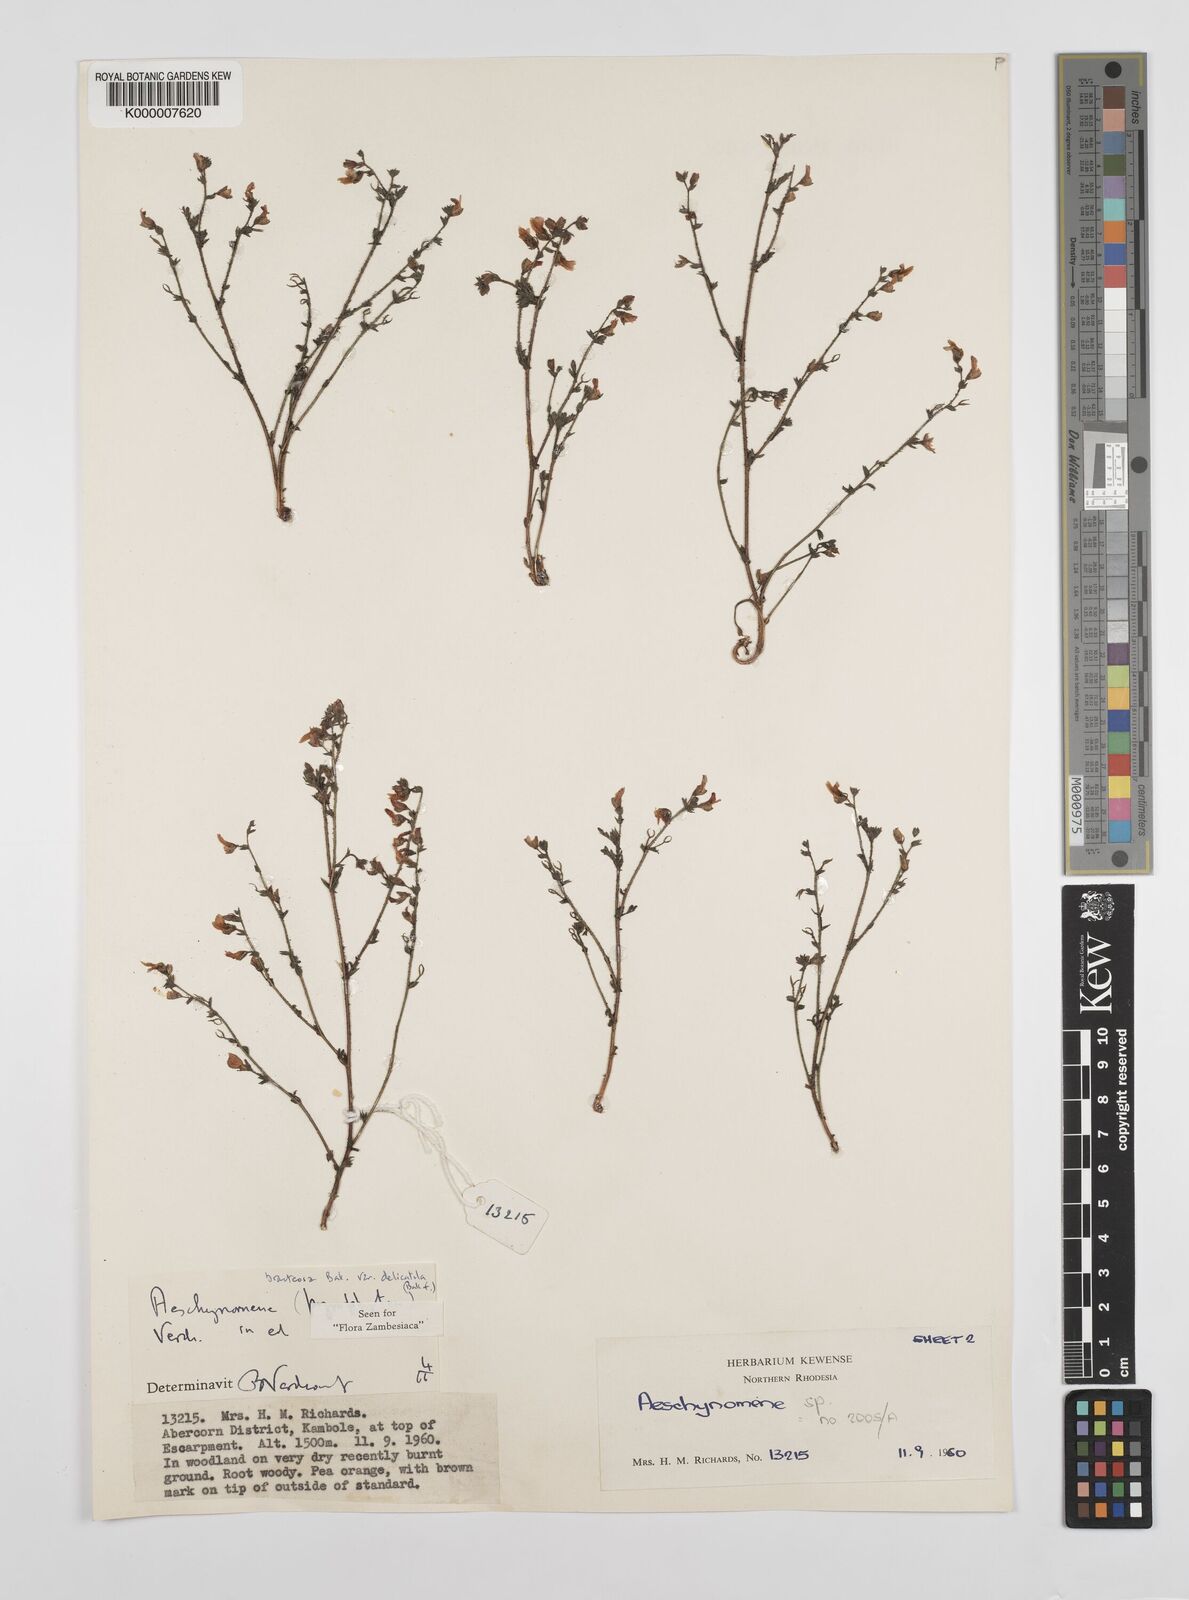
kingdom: Plantae
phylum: Tracheophyta
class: Magnoliopsida
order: Fabales
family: Fabaceae
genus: Aeschynomene
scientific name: Aeschynomene bracteosa
